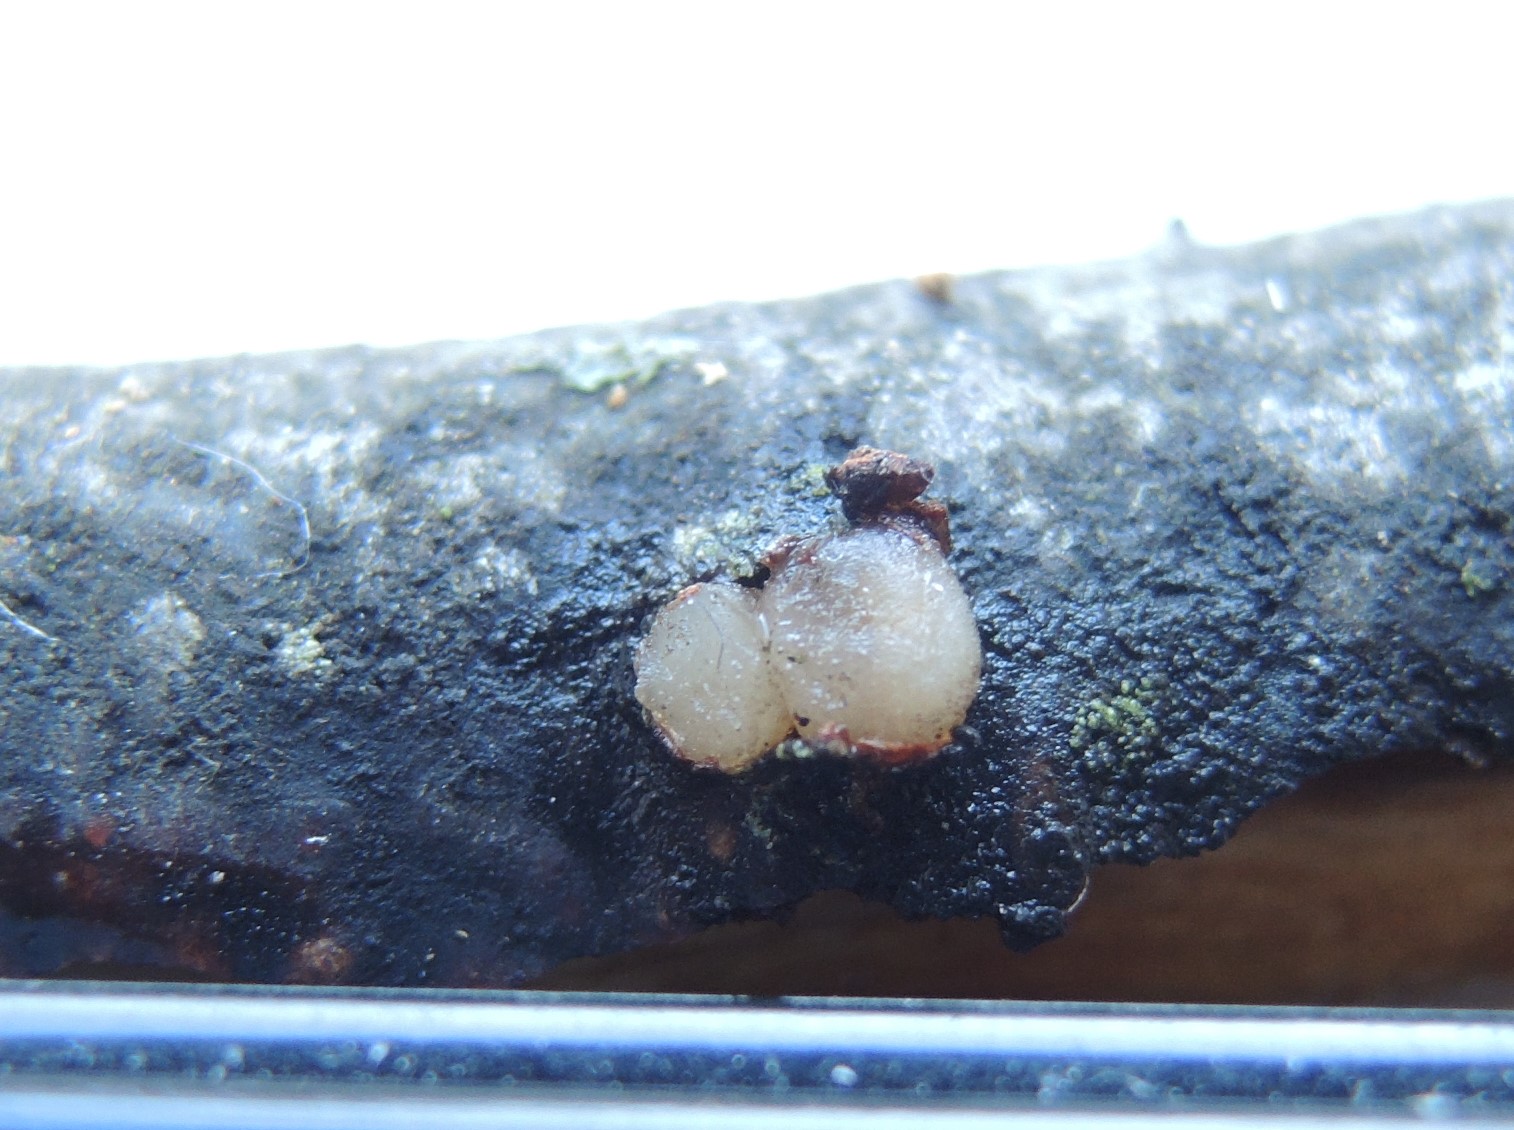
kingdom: Fungi
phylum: Basidiomycota
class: Pucciniomycetes
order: Platygloeales
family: Platygloeaceae
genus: Platygloea
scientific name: Platygloea disciformis
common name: linde-slimklat
